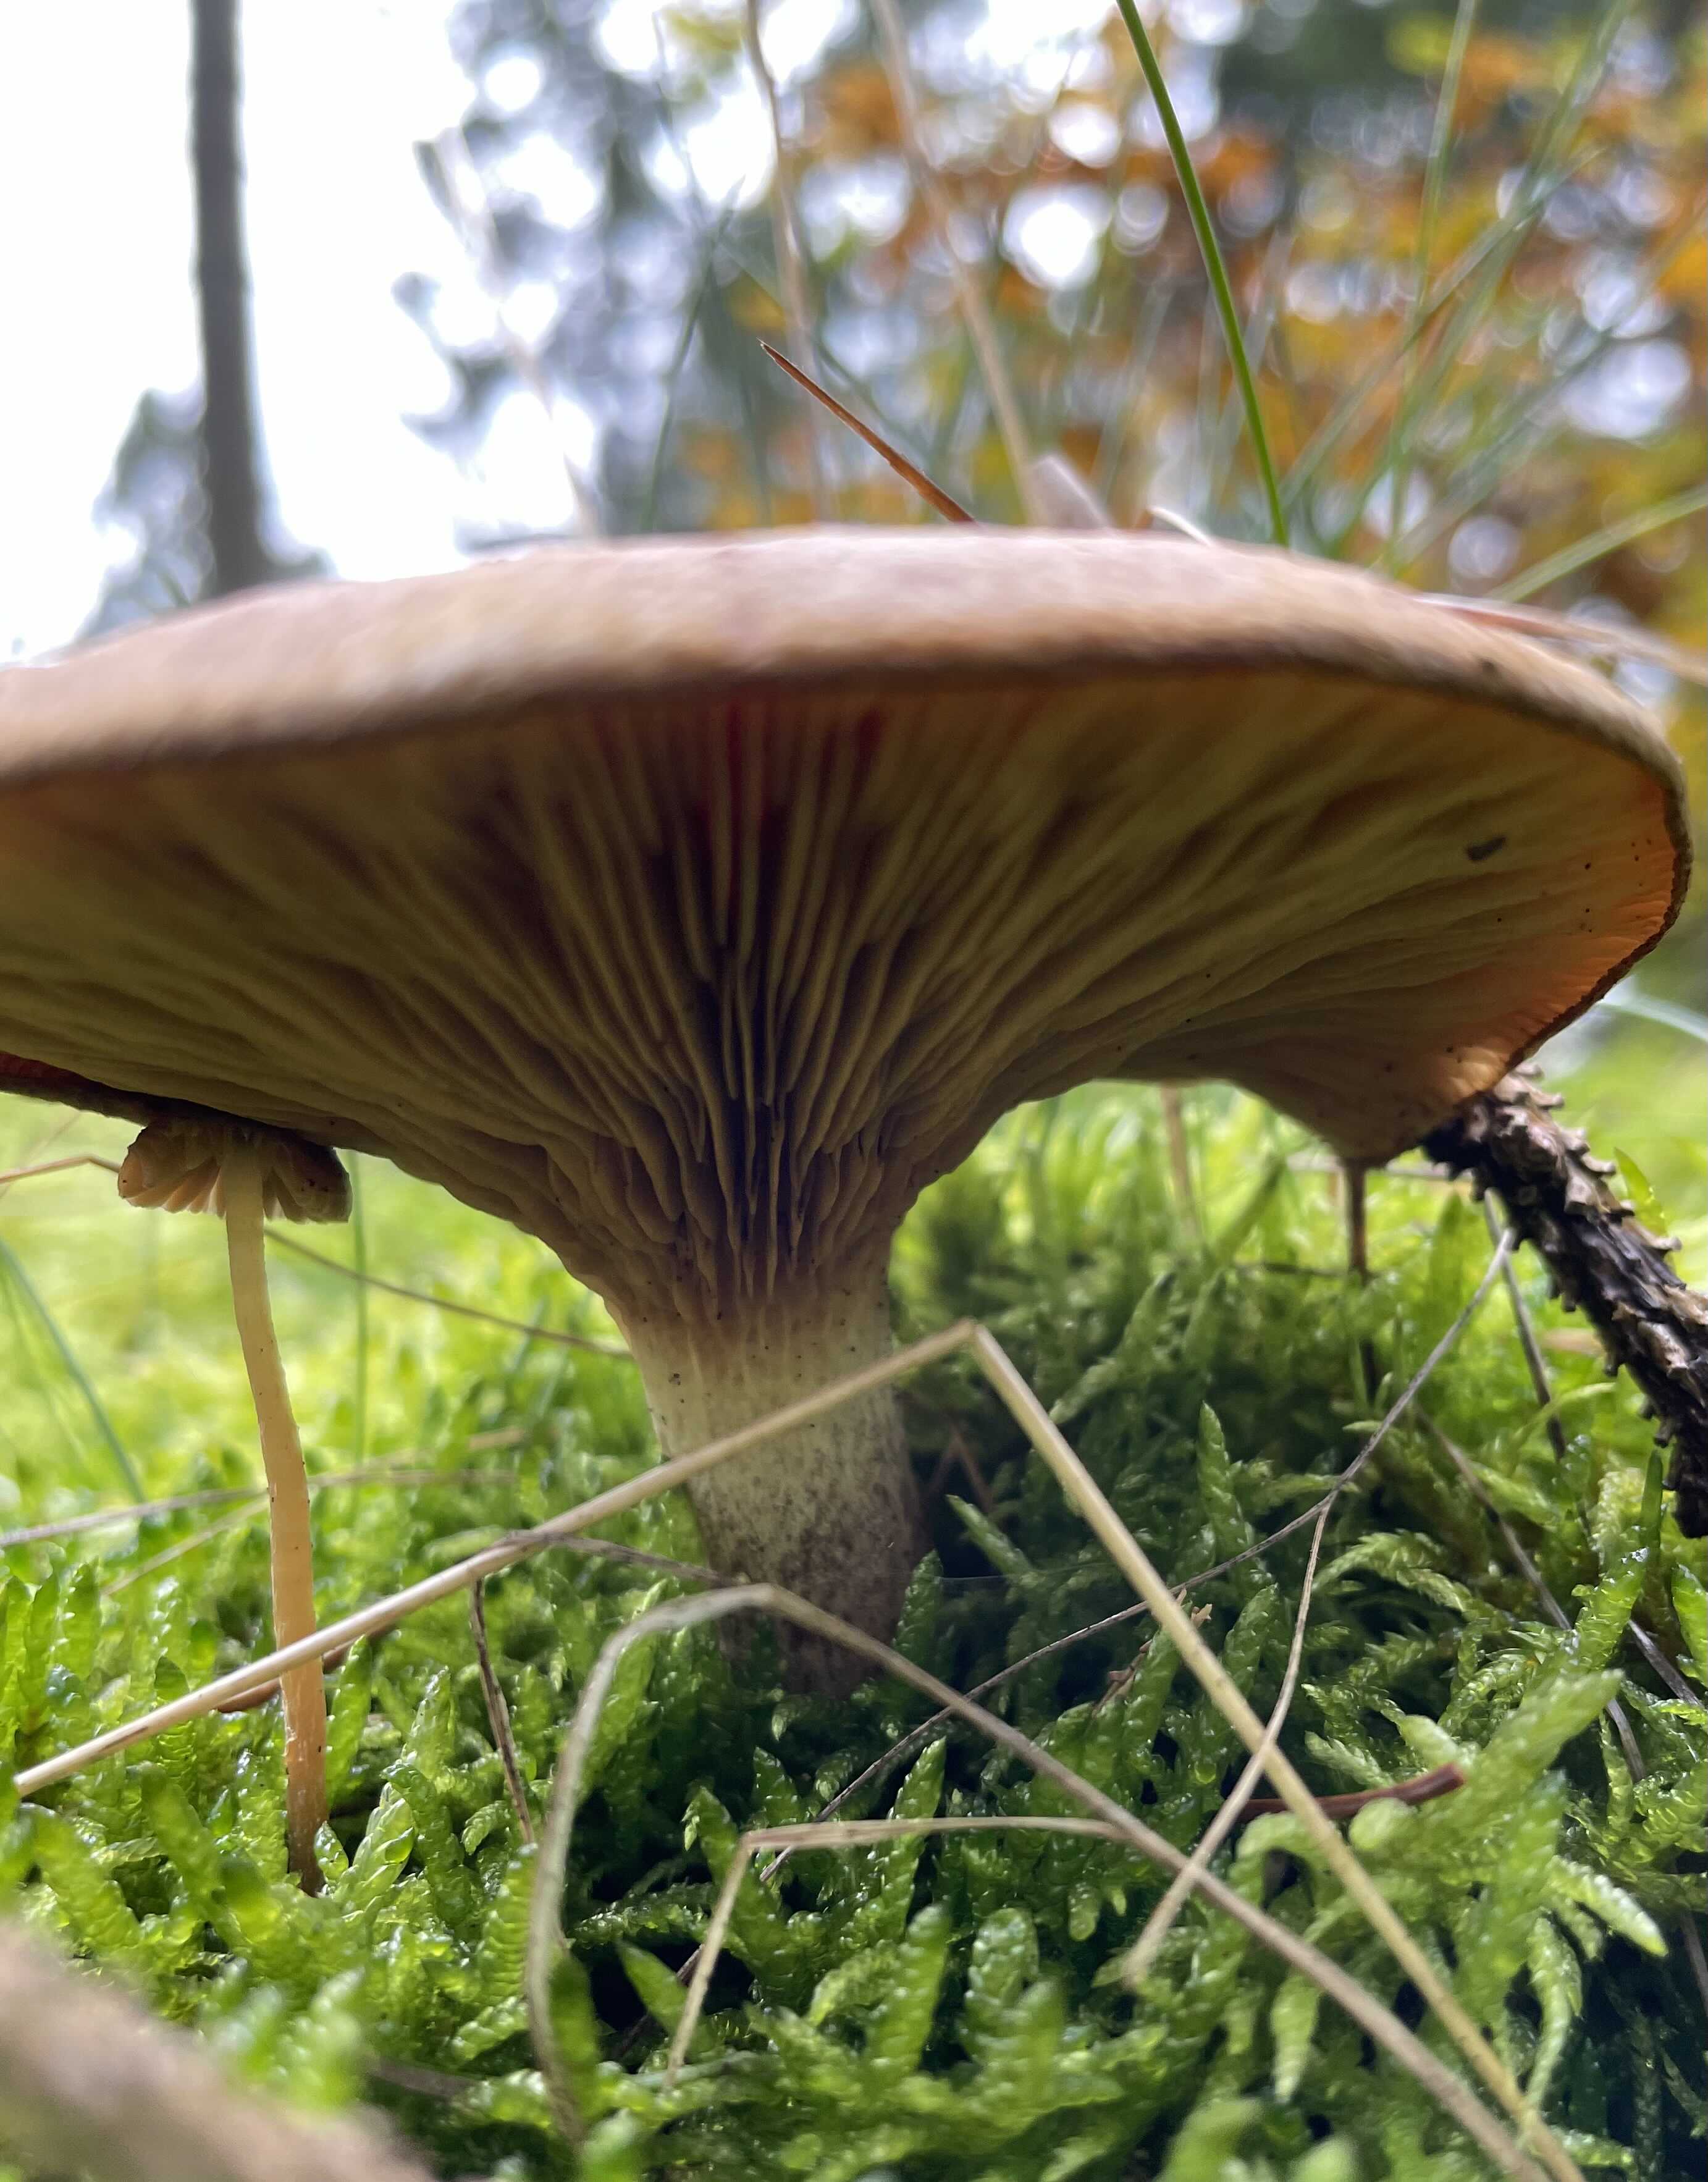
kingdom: Fungi
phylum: Basidiomycota
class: Agaricomycetes
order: Boletales
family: Paxillaceae
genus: Paxillus
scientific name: Paxillus involutus
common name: almindelig netbladhat
